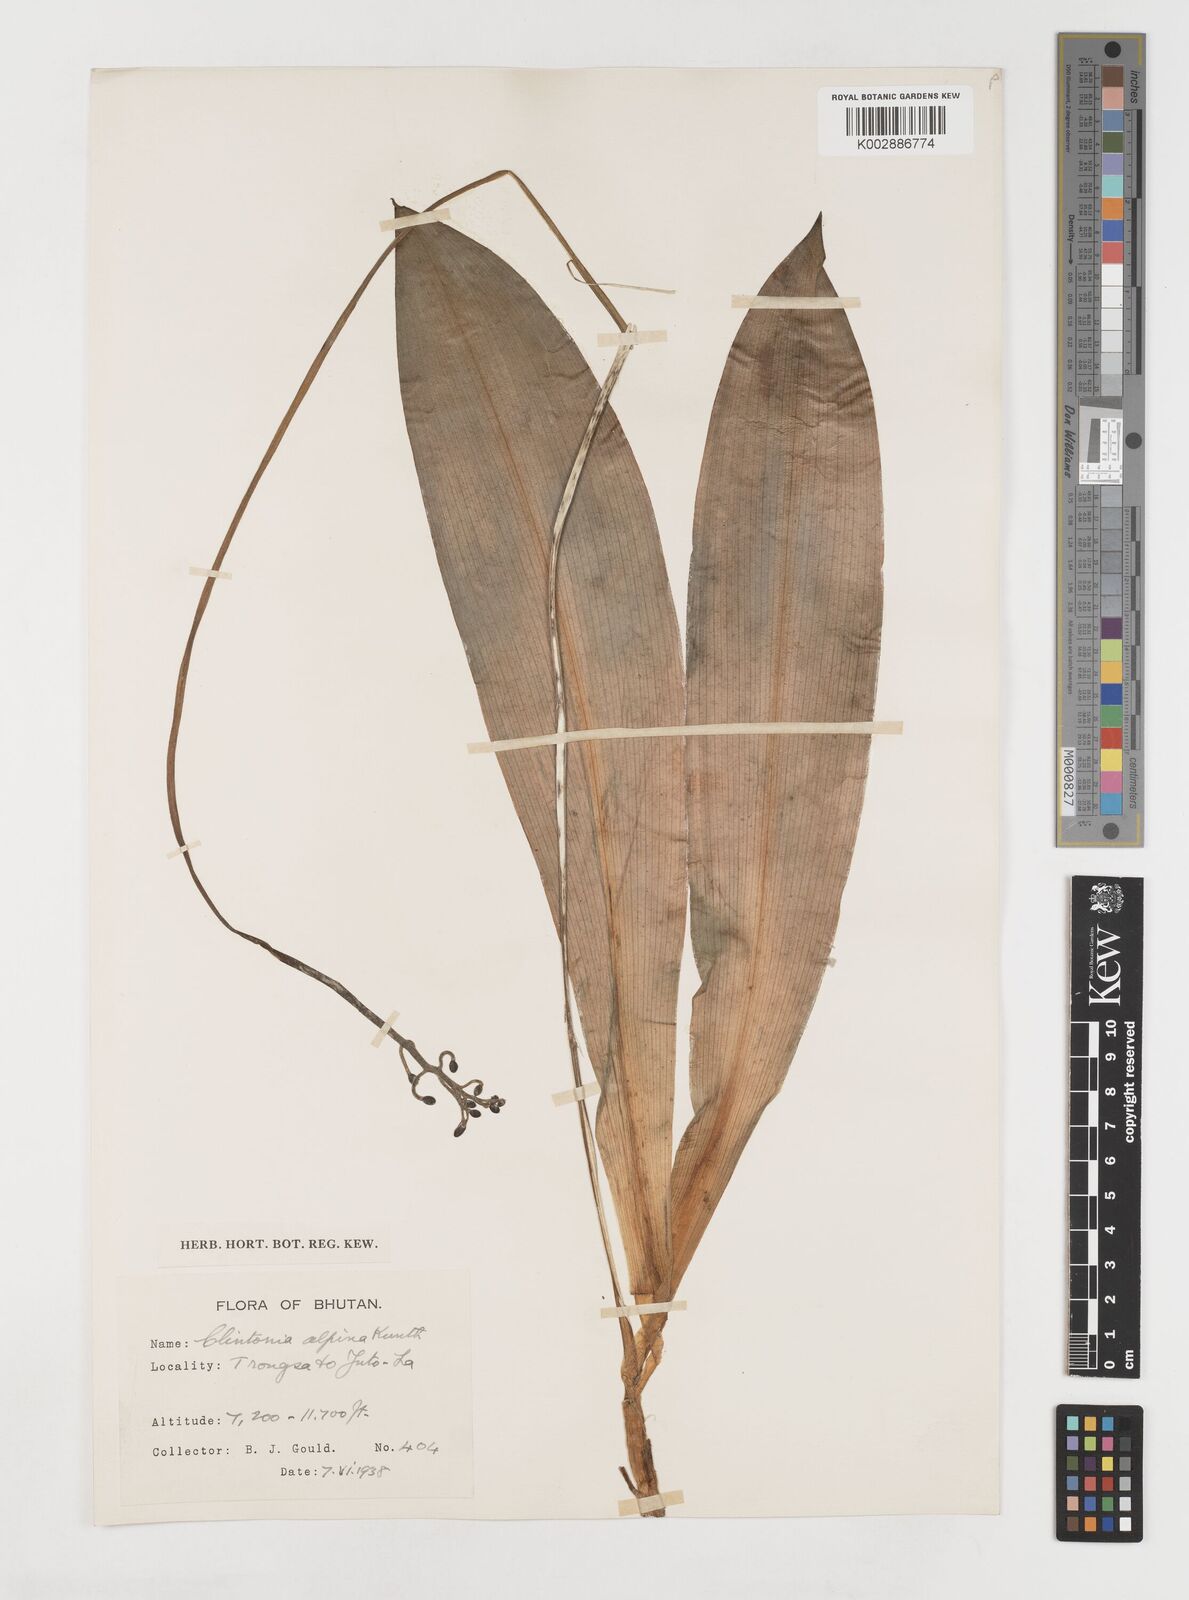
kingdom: Plantae
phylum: Tracheophyta
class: Liliopsida
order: Liliales
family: Liliaceae
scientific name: Liliaceae
